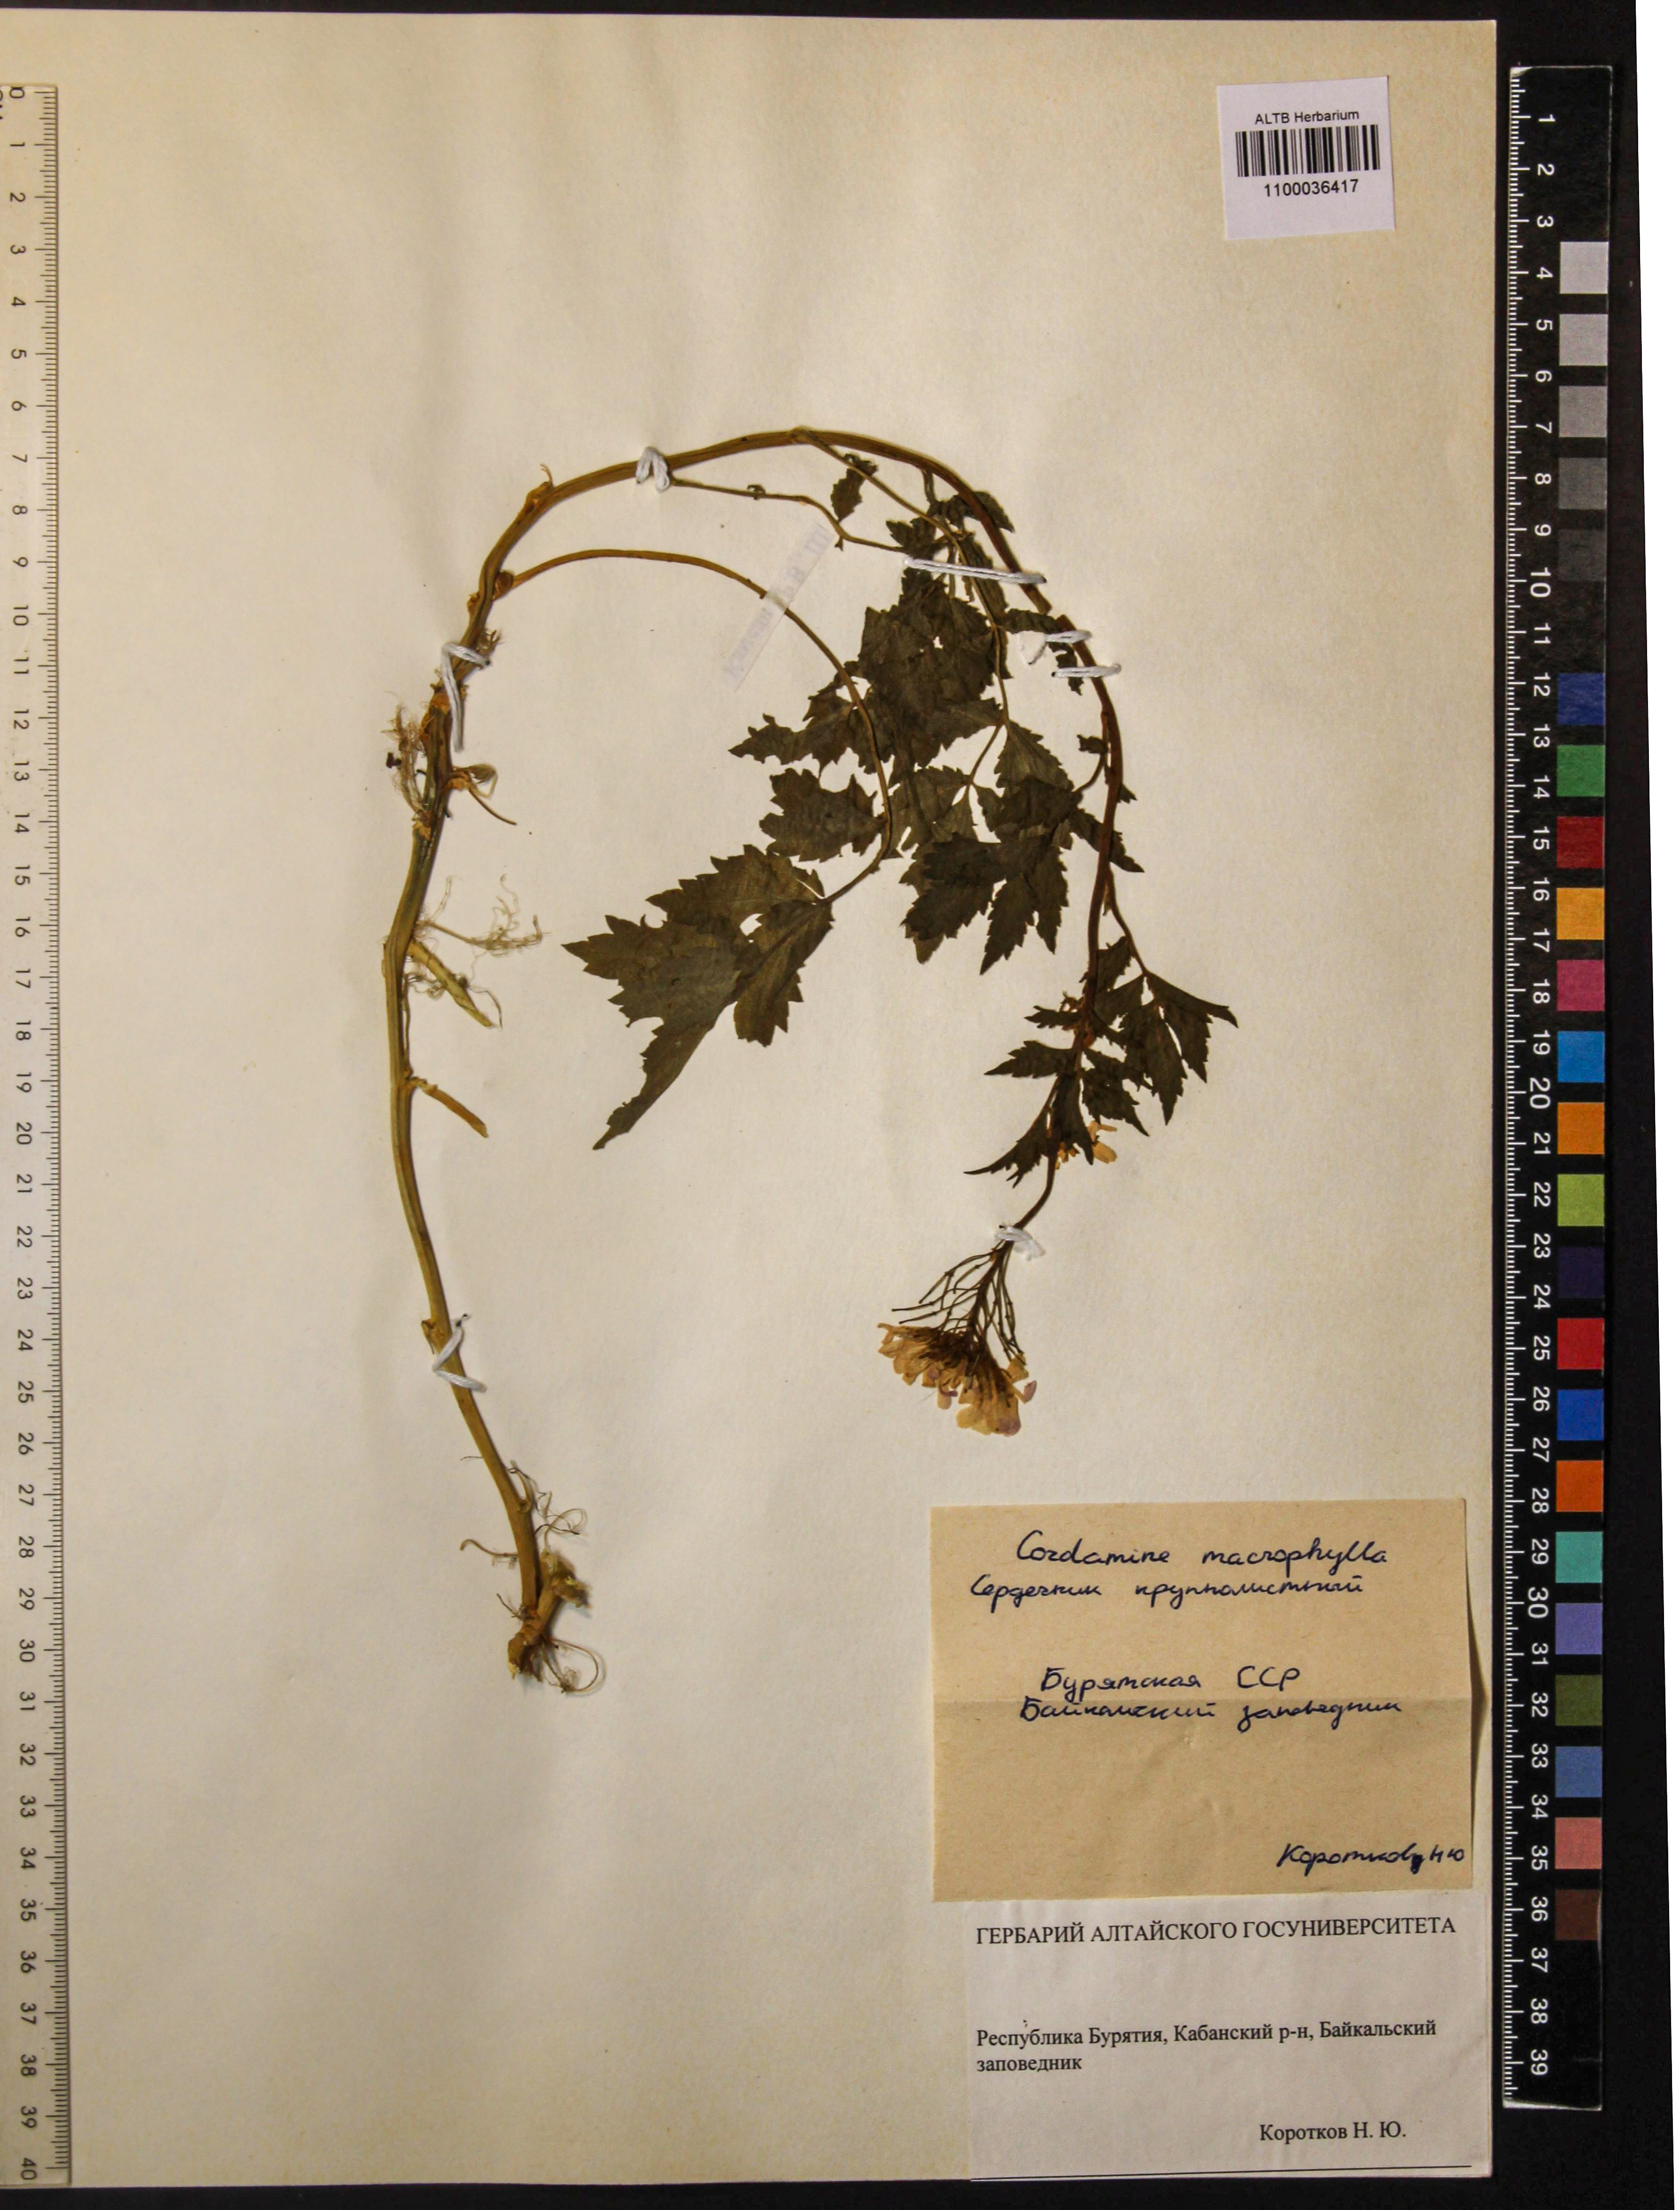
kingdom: Plantae
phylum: Tracheophyta
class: Magnoliopsida
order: Brassicales
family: Brassicaceae
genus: Cardamine
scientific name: Cardamine macrophylla
